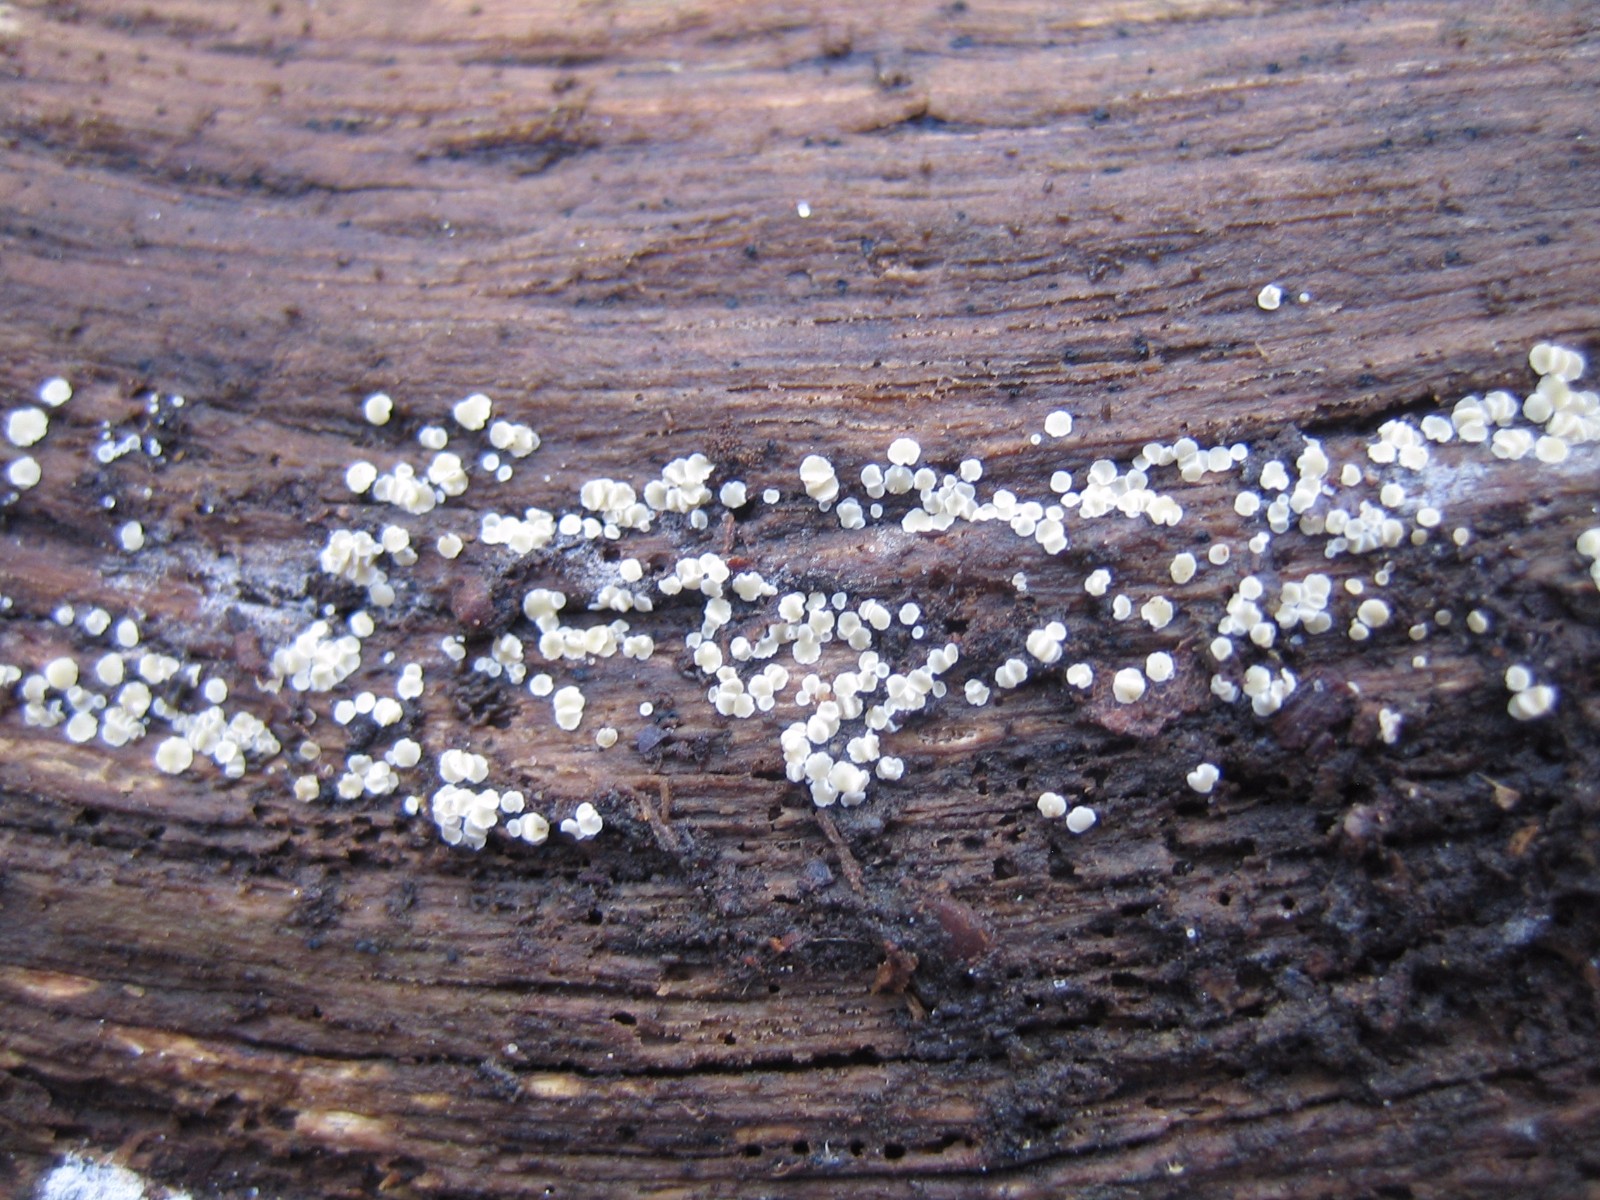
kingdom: Fungi
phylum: Ascomycota
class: Leotiomycetes
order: Helotiales
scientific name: Helotiales
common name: stilkskiveordenen
